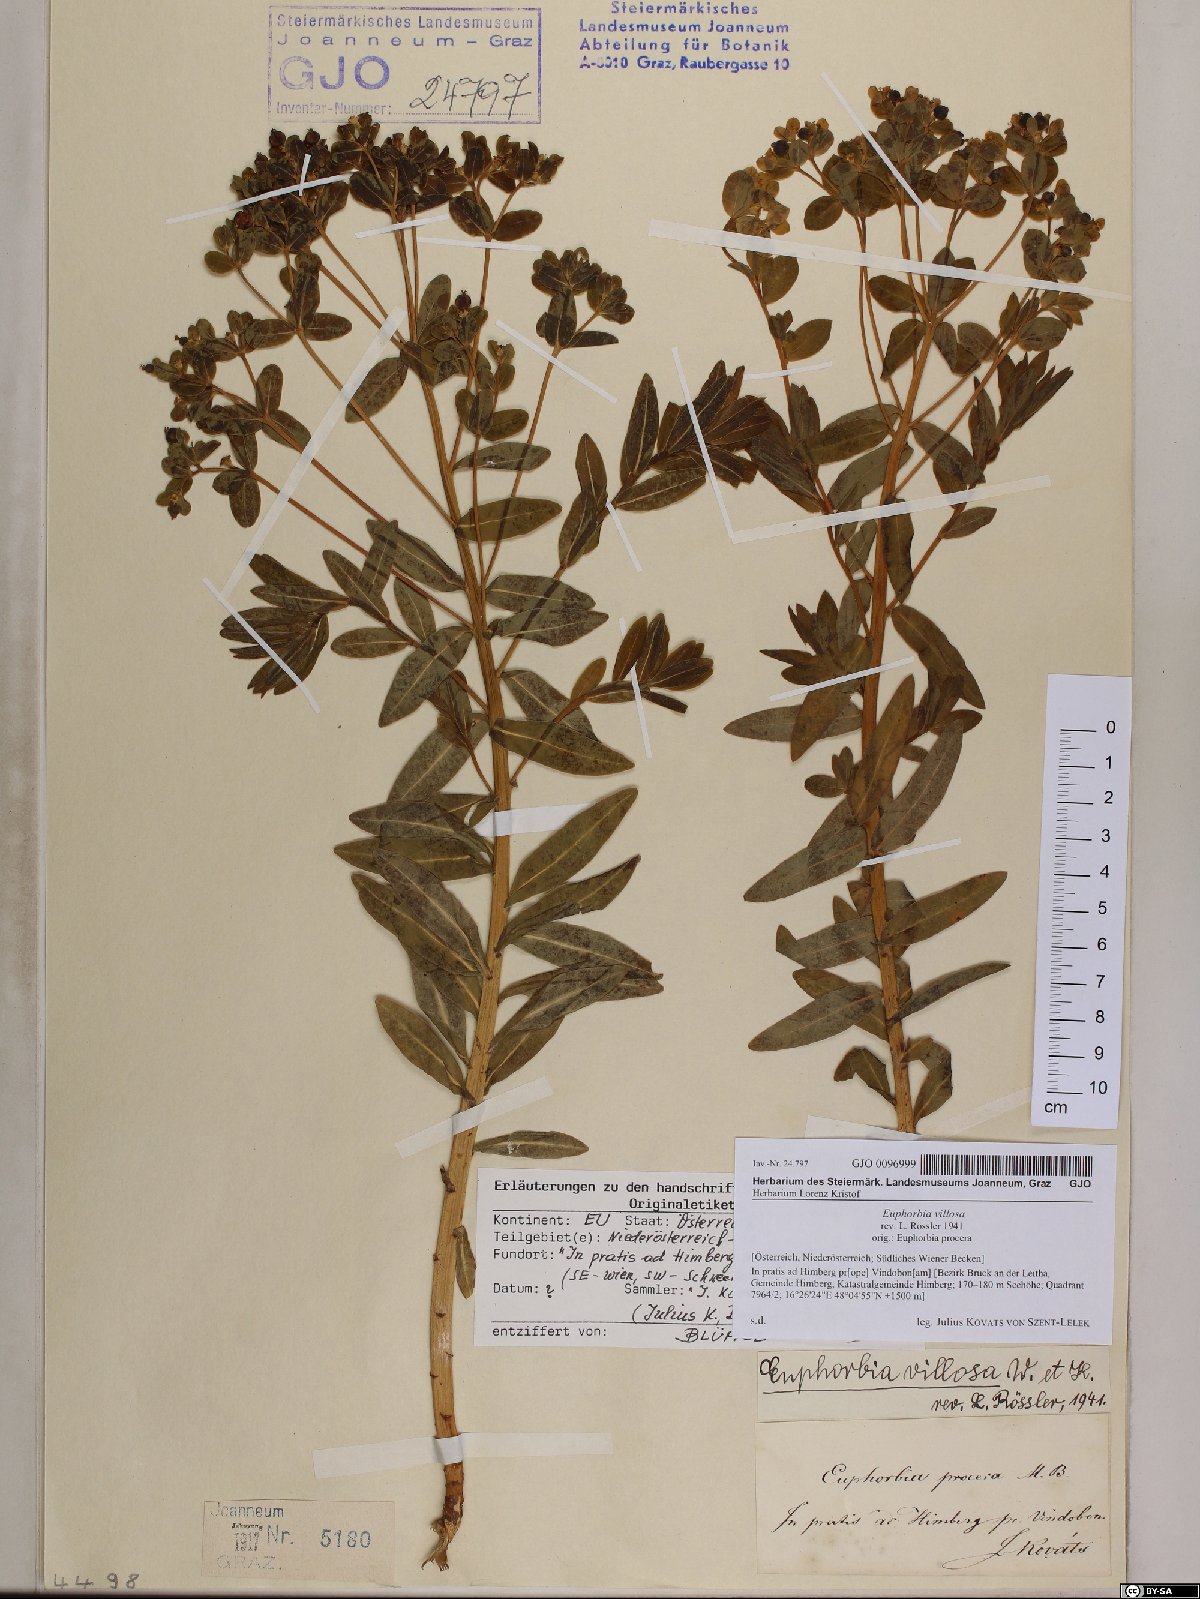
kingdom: Plantae
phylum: Tracheophyta
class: Magnoliopsida
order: Malpighiales
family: Euphorbiaceae
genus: Euphorbia
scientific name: Euphorbia illirica
